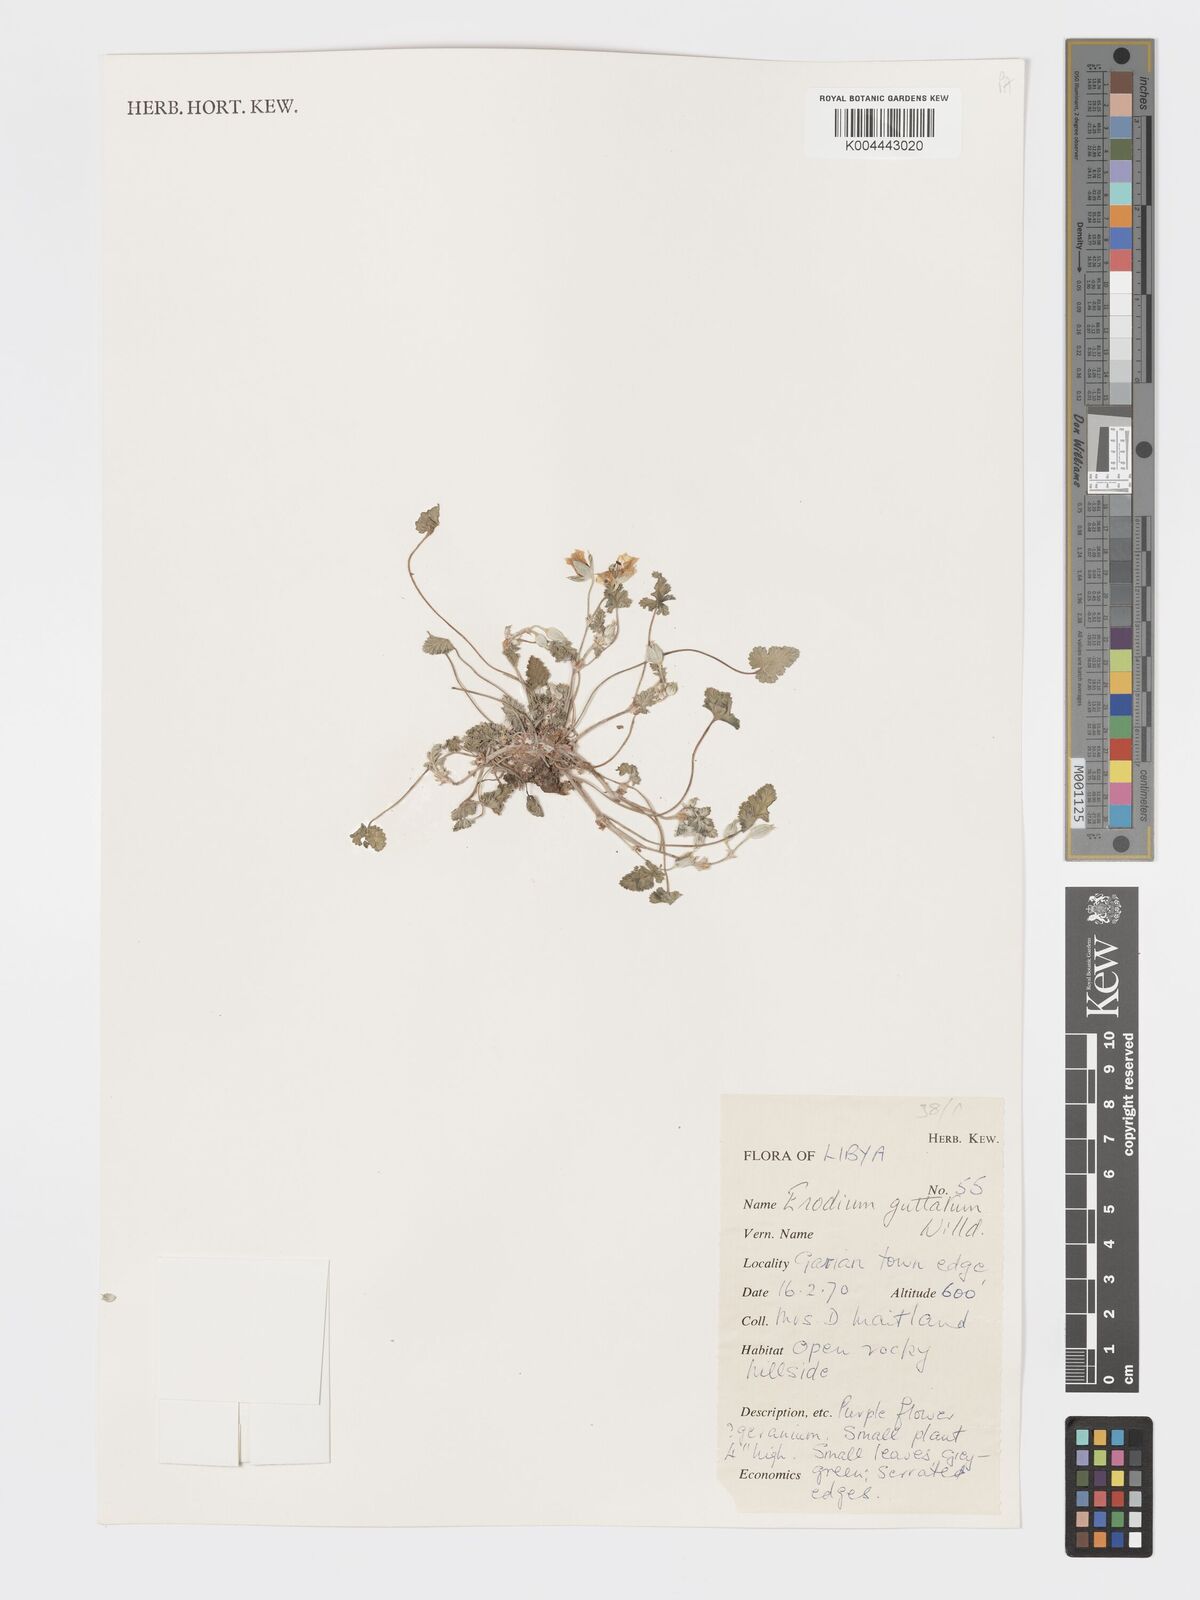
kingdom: Plantae
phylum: Tracheophyta
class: Magnoliopsida
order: Geraniales
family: Geraniaceae
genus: Erodium
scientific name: Erodium guttatum
